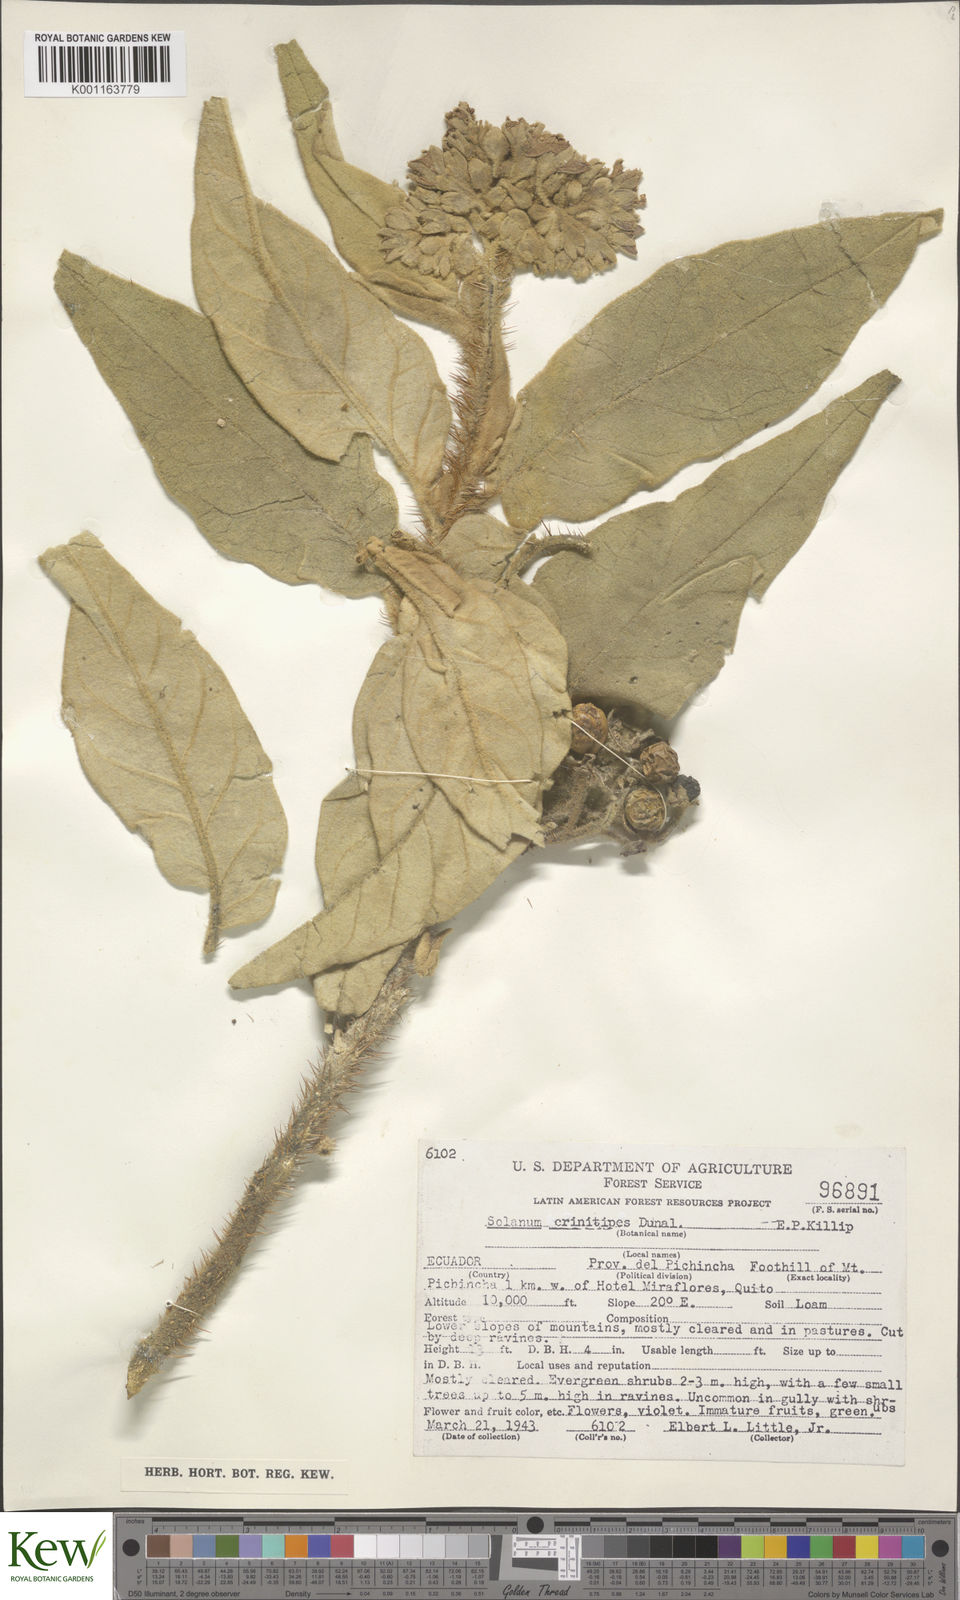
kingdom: Plantae
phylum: Tracheophyta
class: Magnoliopsida
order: Solanales
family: Solanaceae
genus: Solanum
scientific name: Solanum crinitipes
